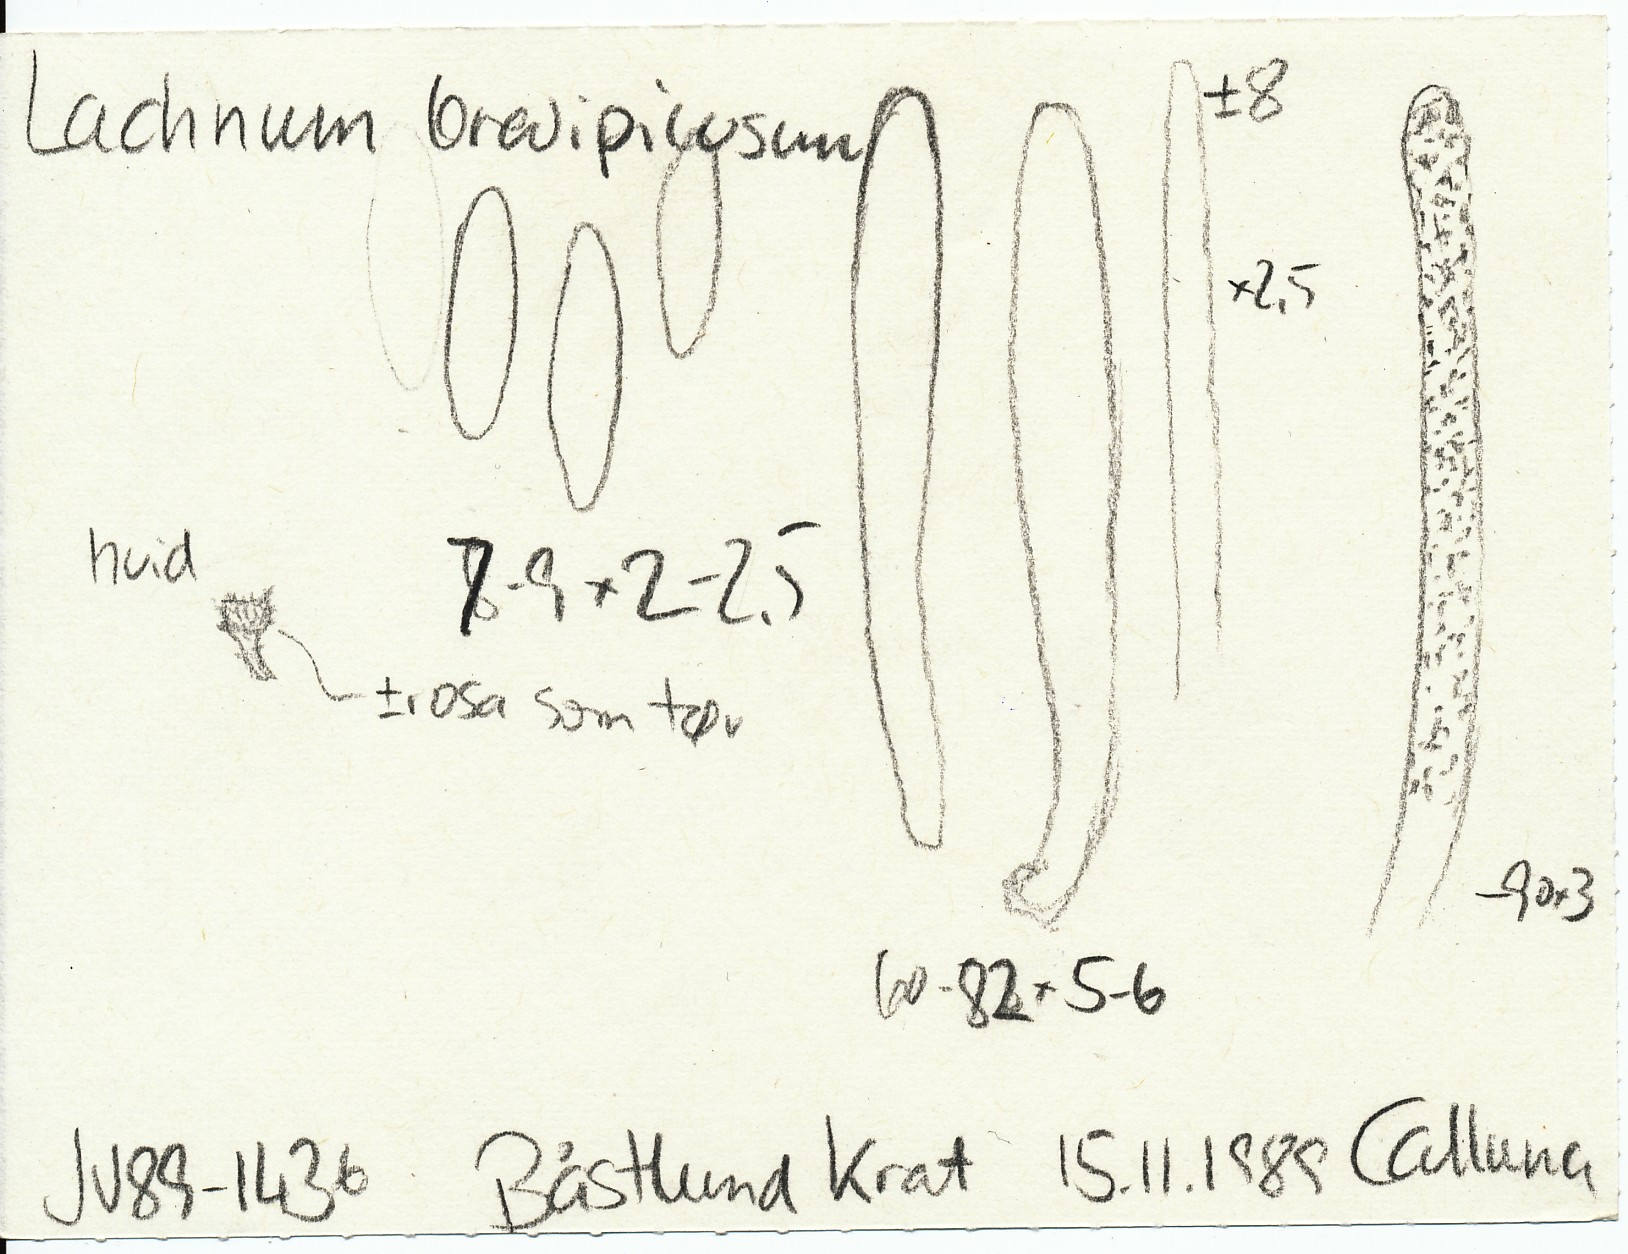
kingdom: Fungi
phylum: Ascomycota
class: Leotiomycetes
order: Helotiales
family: Lachnaceae
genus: Lachnum
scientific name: Lachnum brevipilosum
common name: korthåret frynseskive
